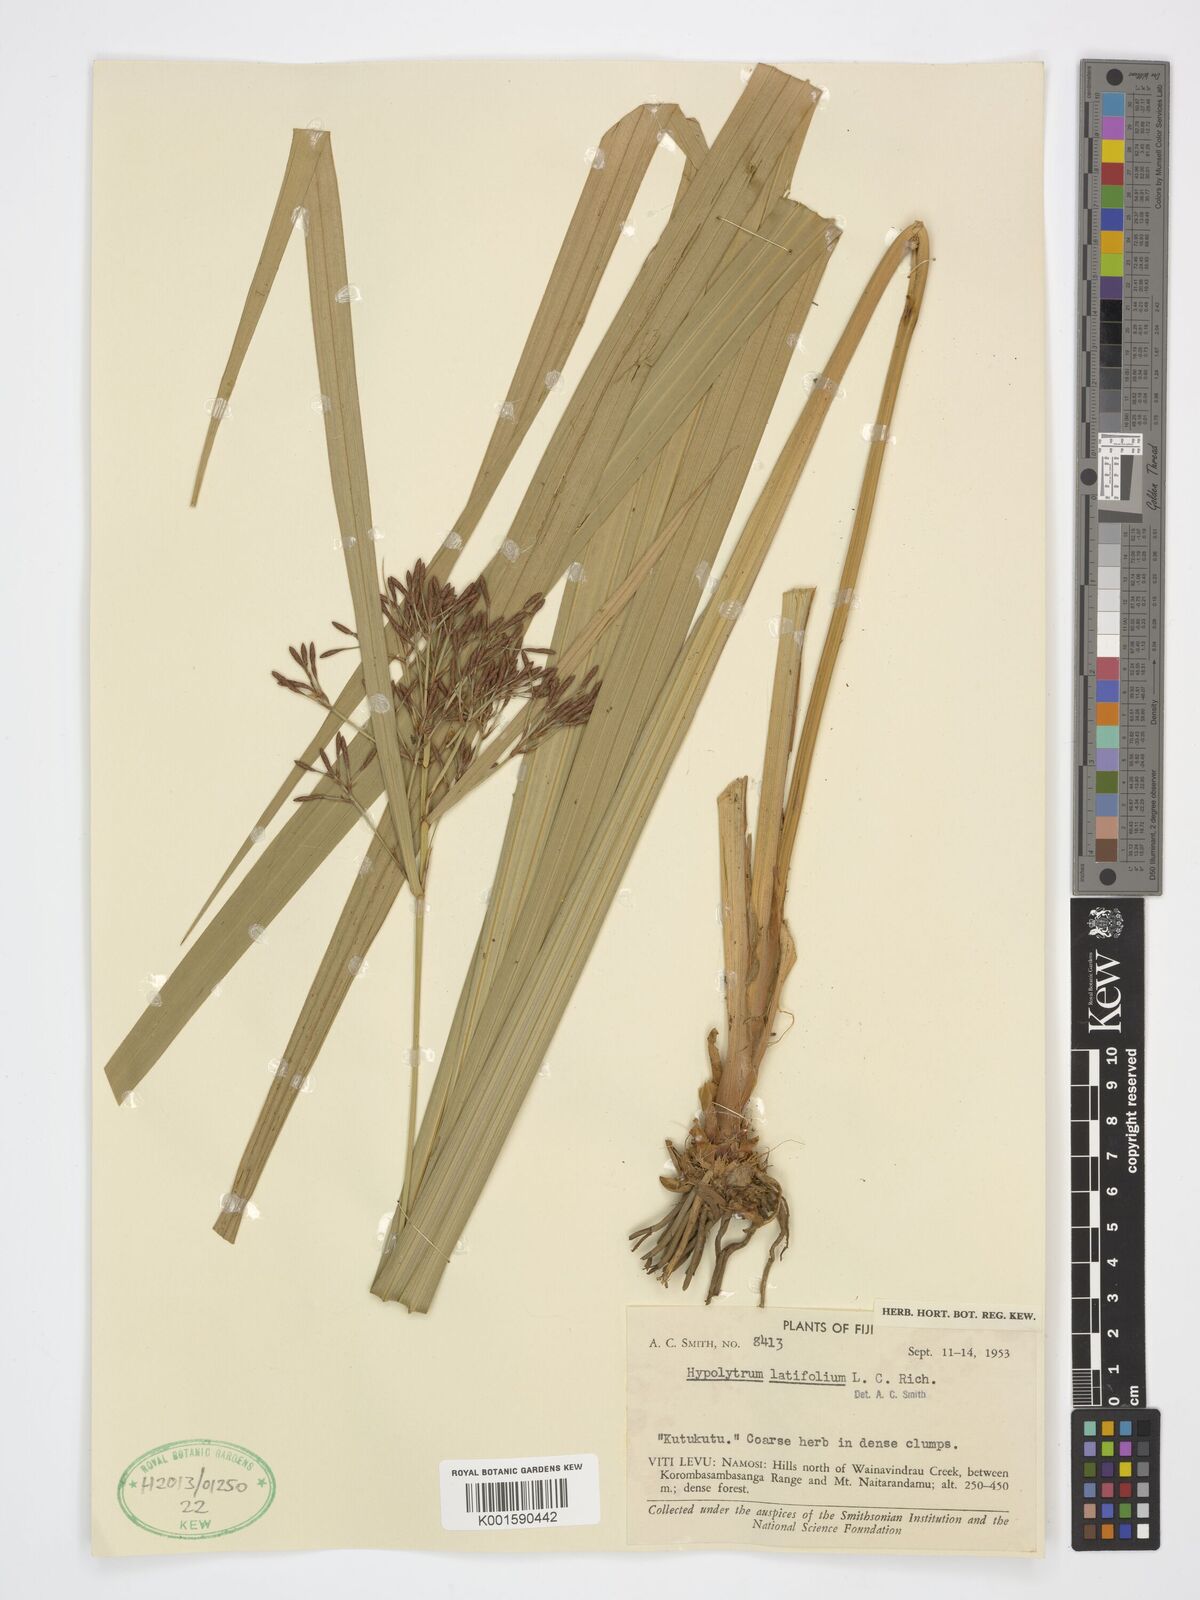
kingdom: Plantae
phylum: Tracheophyta
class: Liliopsida
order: Poales
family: Cyperaceae
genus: Hypolytrum
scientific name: Hypolytrum
